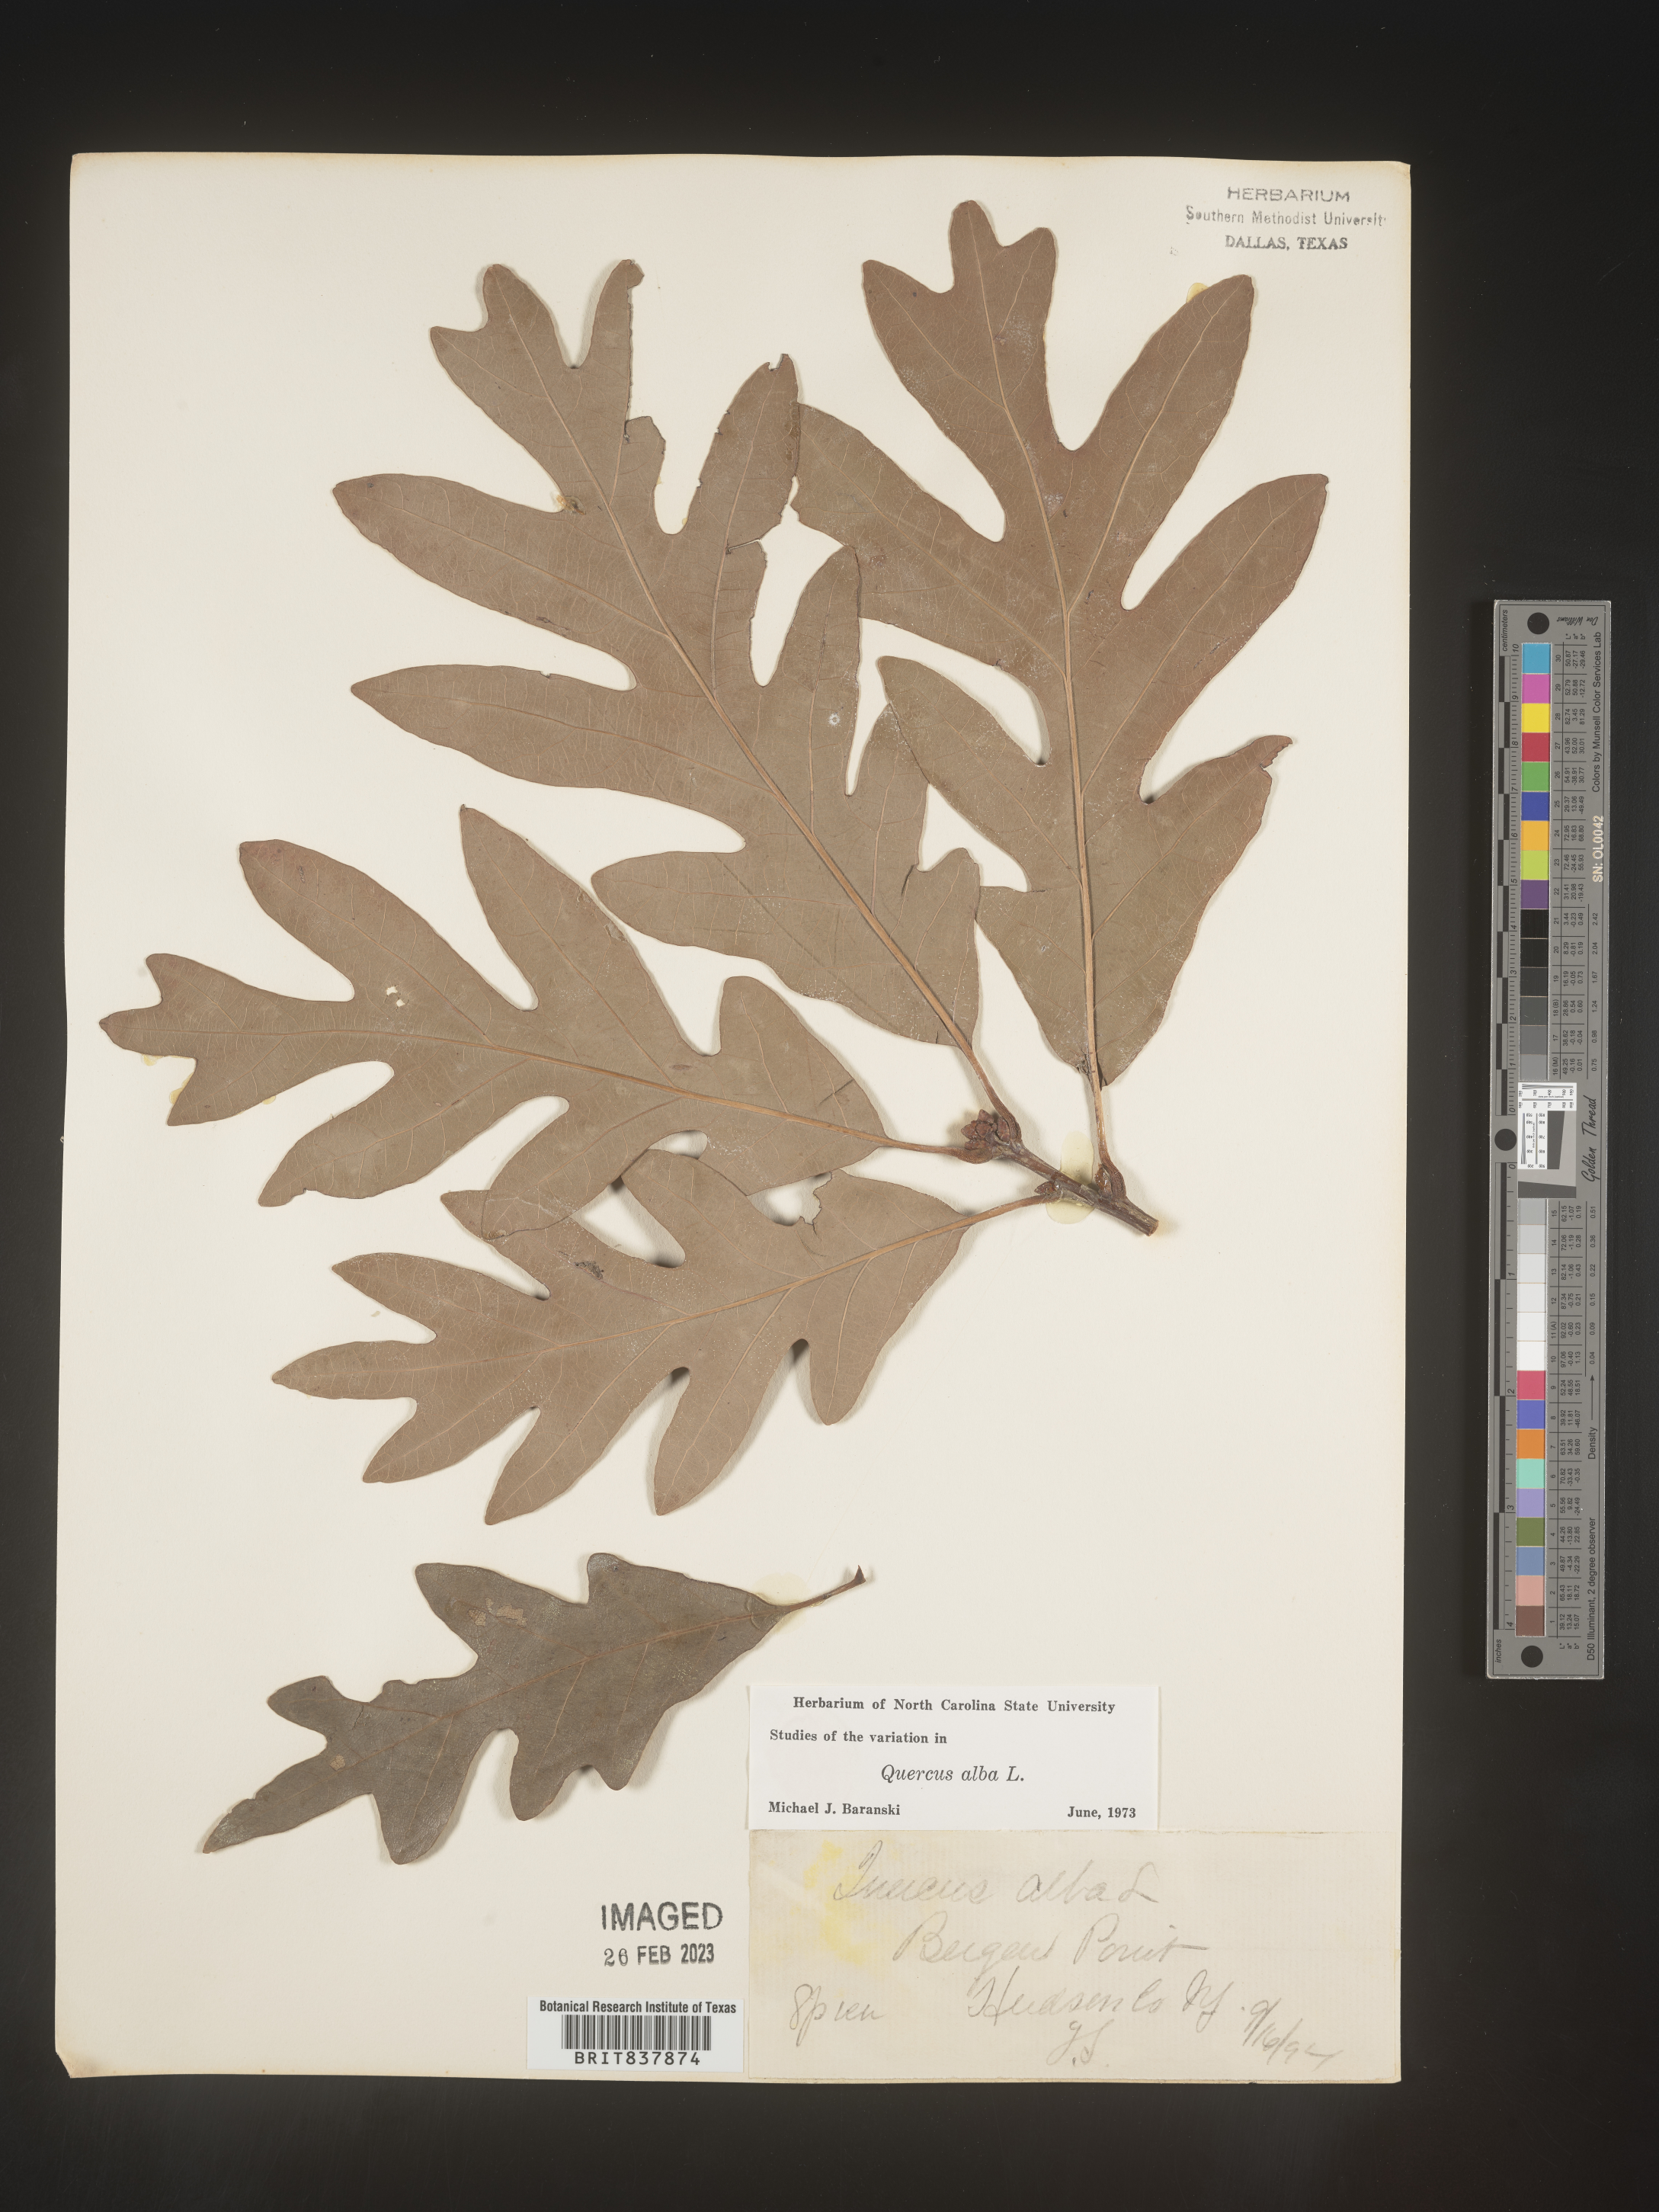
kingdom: Plantae
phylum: Tracheophyta
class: Magnoliopsida
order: Fagales
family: Fagaceae
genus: Quercus
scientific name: Quercus alba
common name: White oak
